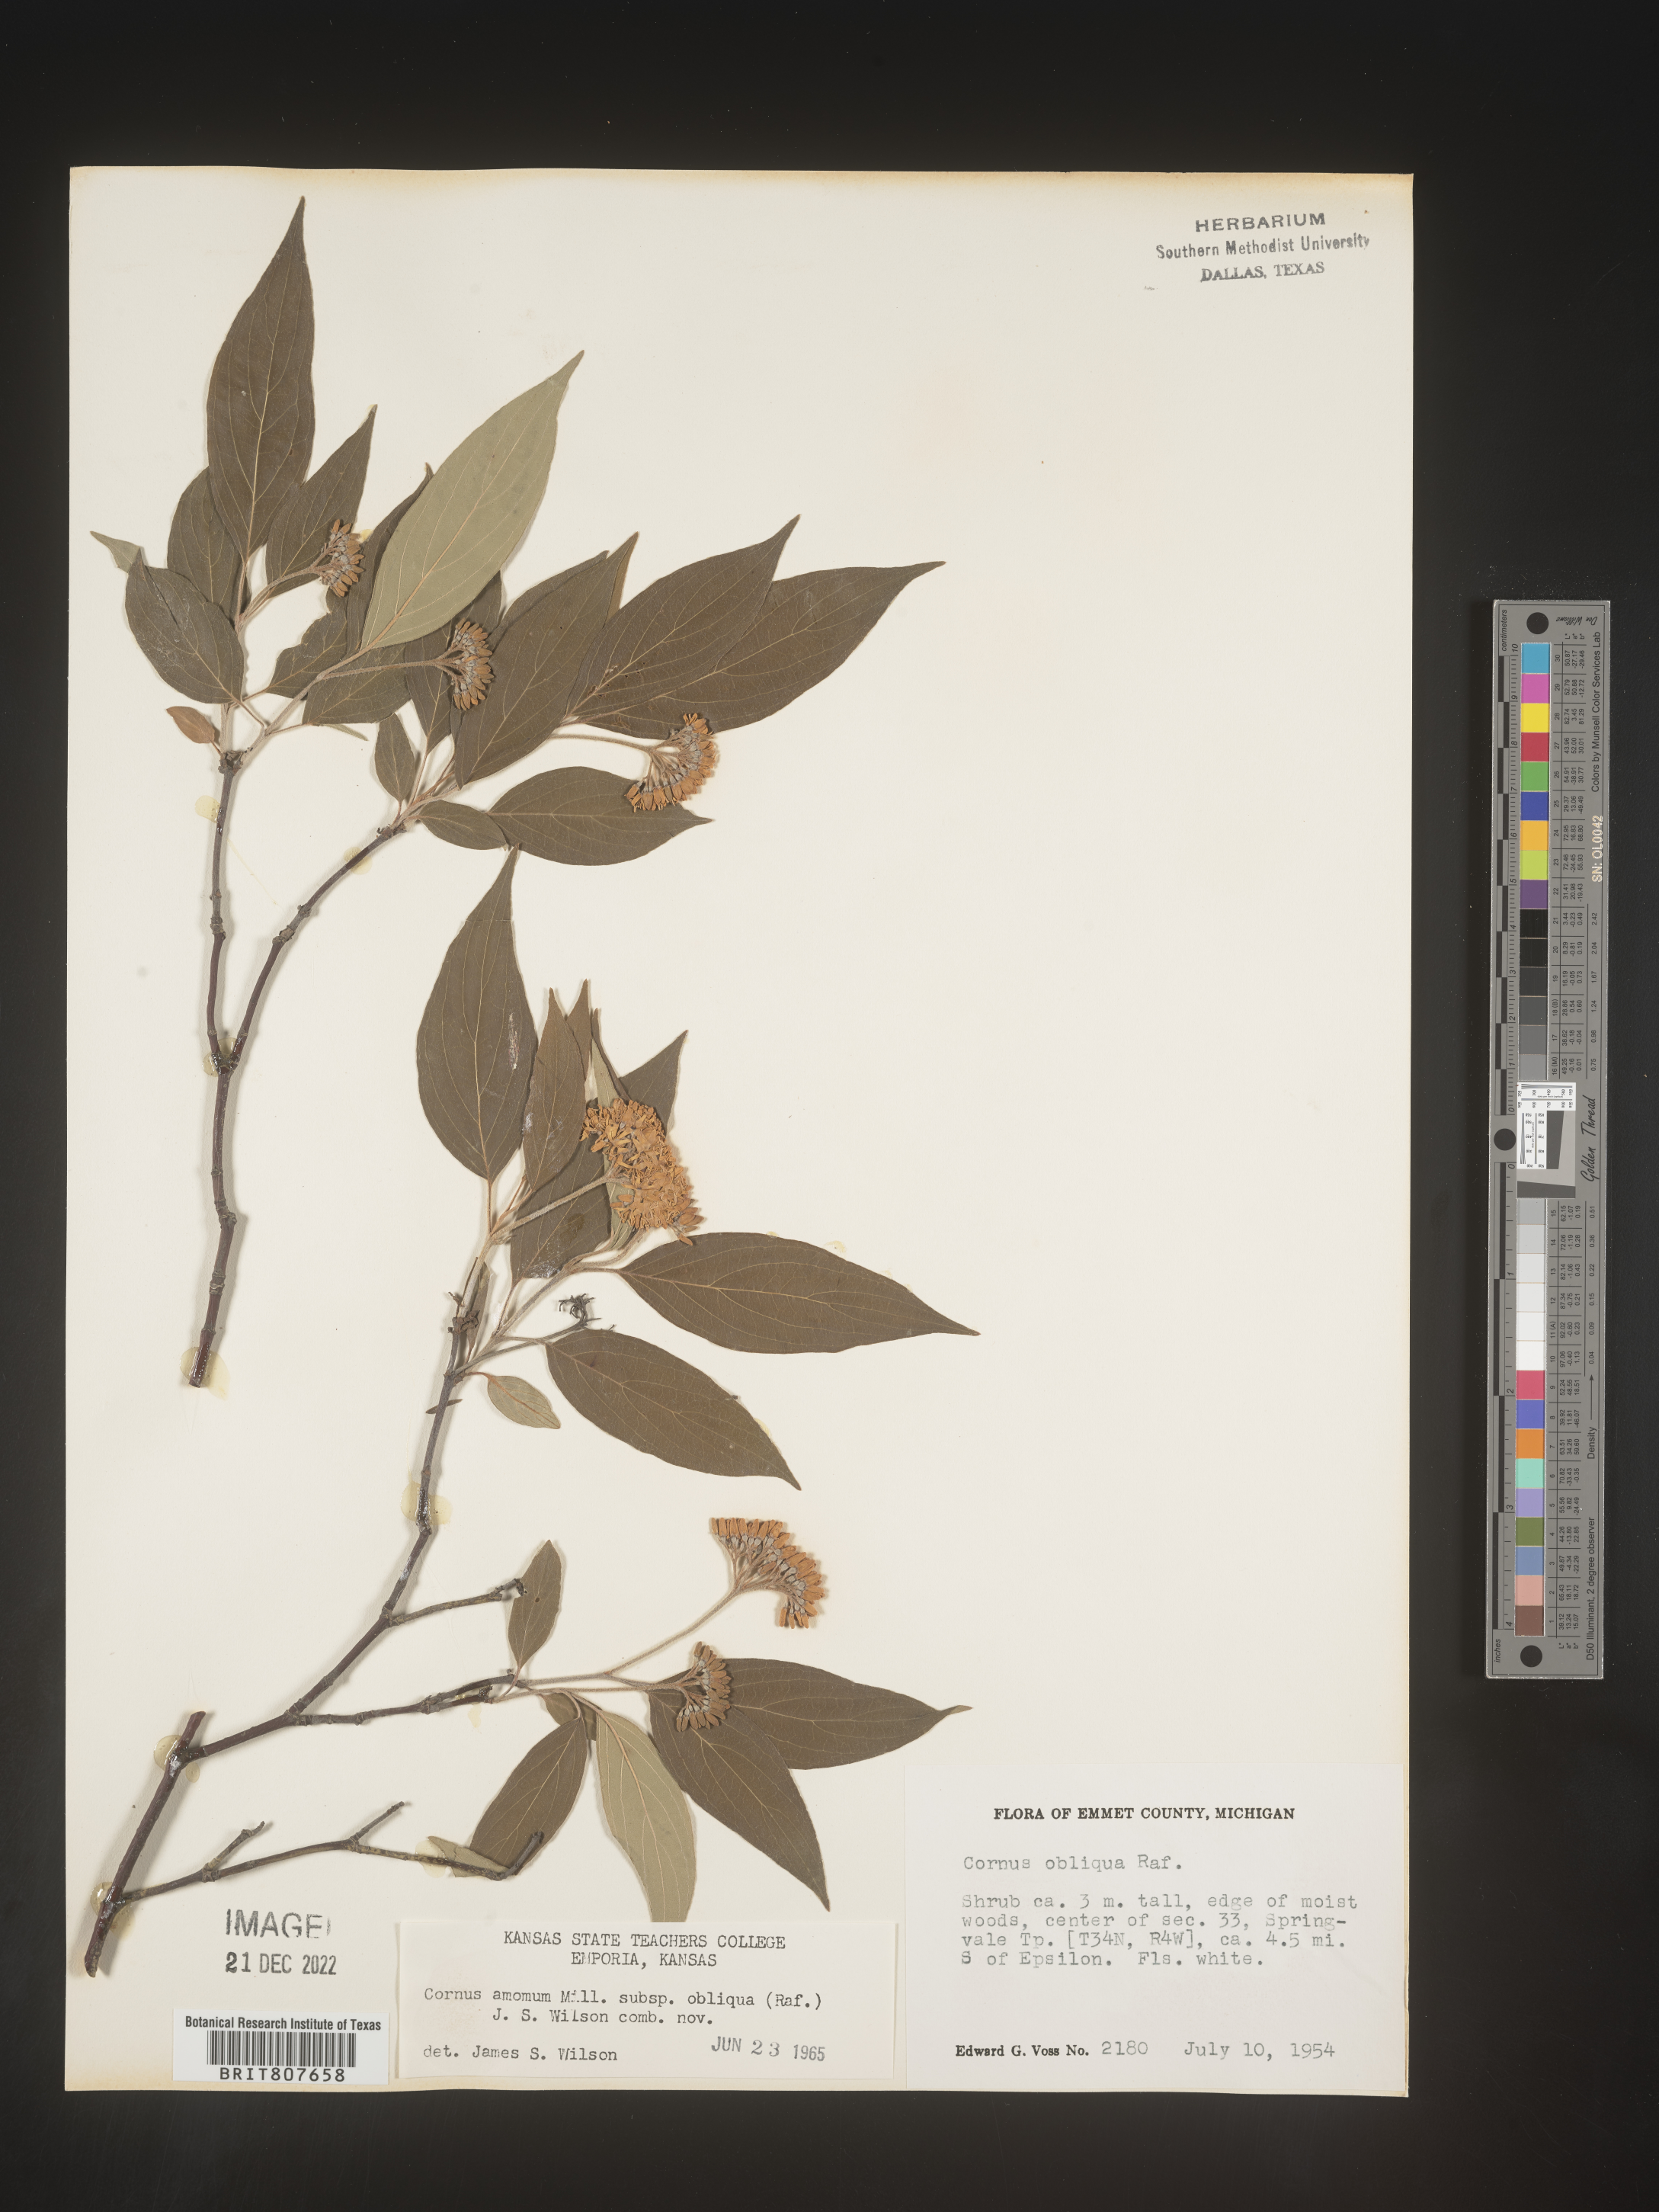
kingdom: Plantae
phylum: Tracheophyta
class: Magnoliopsida
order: Cornales
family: Cornaceae
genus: Cornus
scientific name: Cornus obliqua
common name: Pale dogwood
